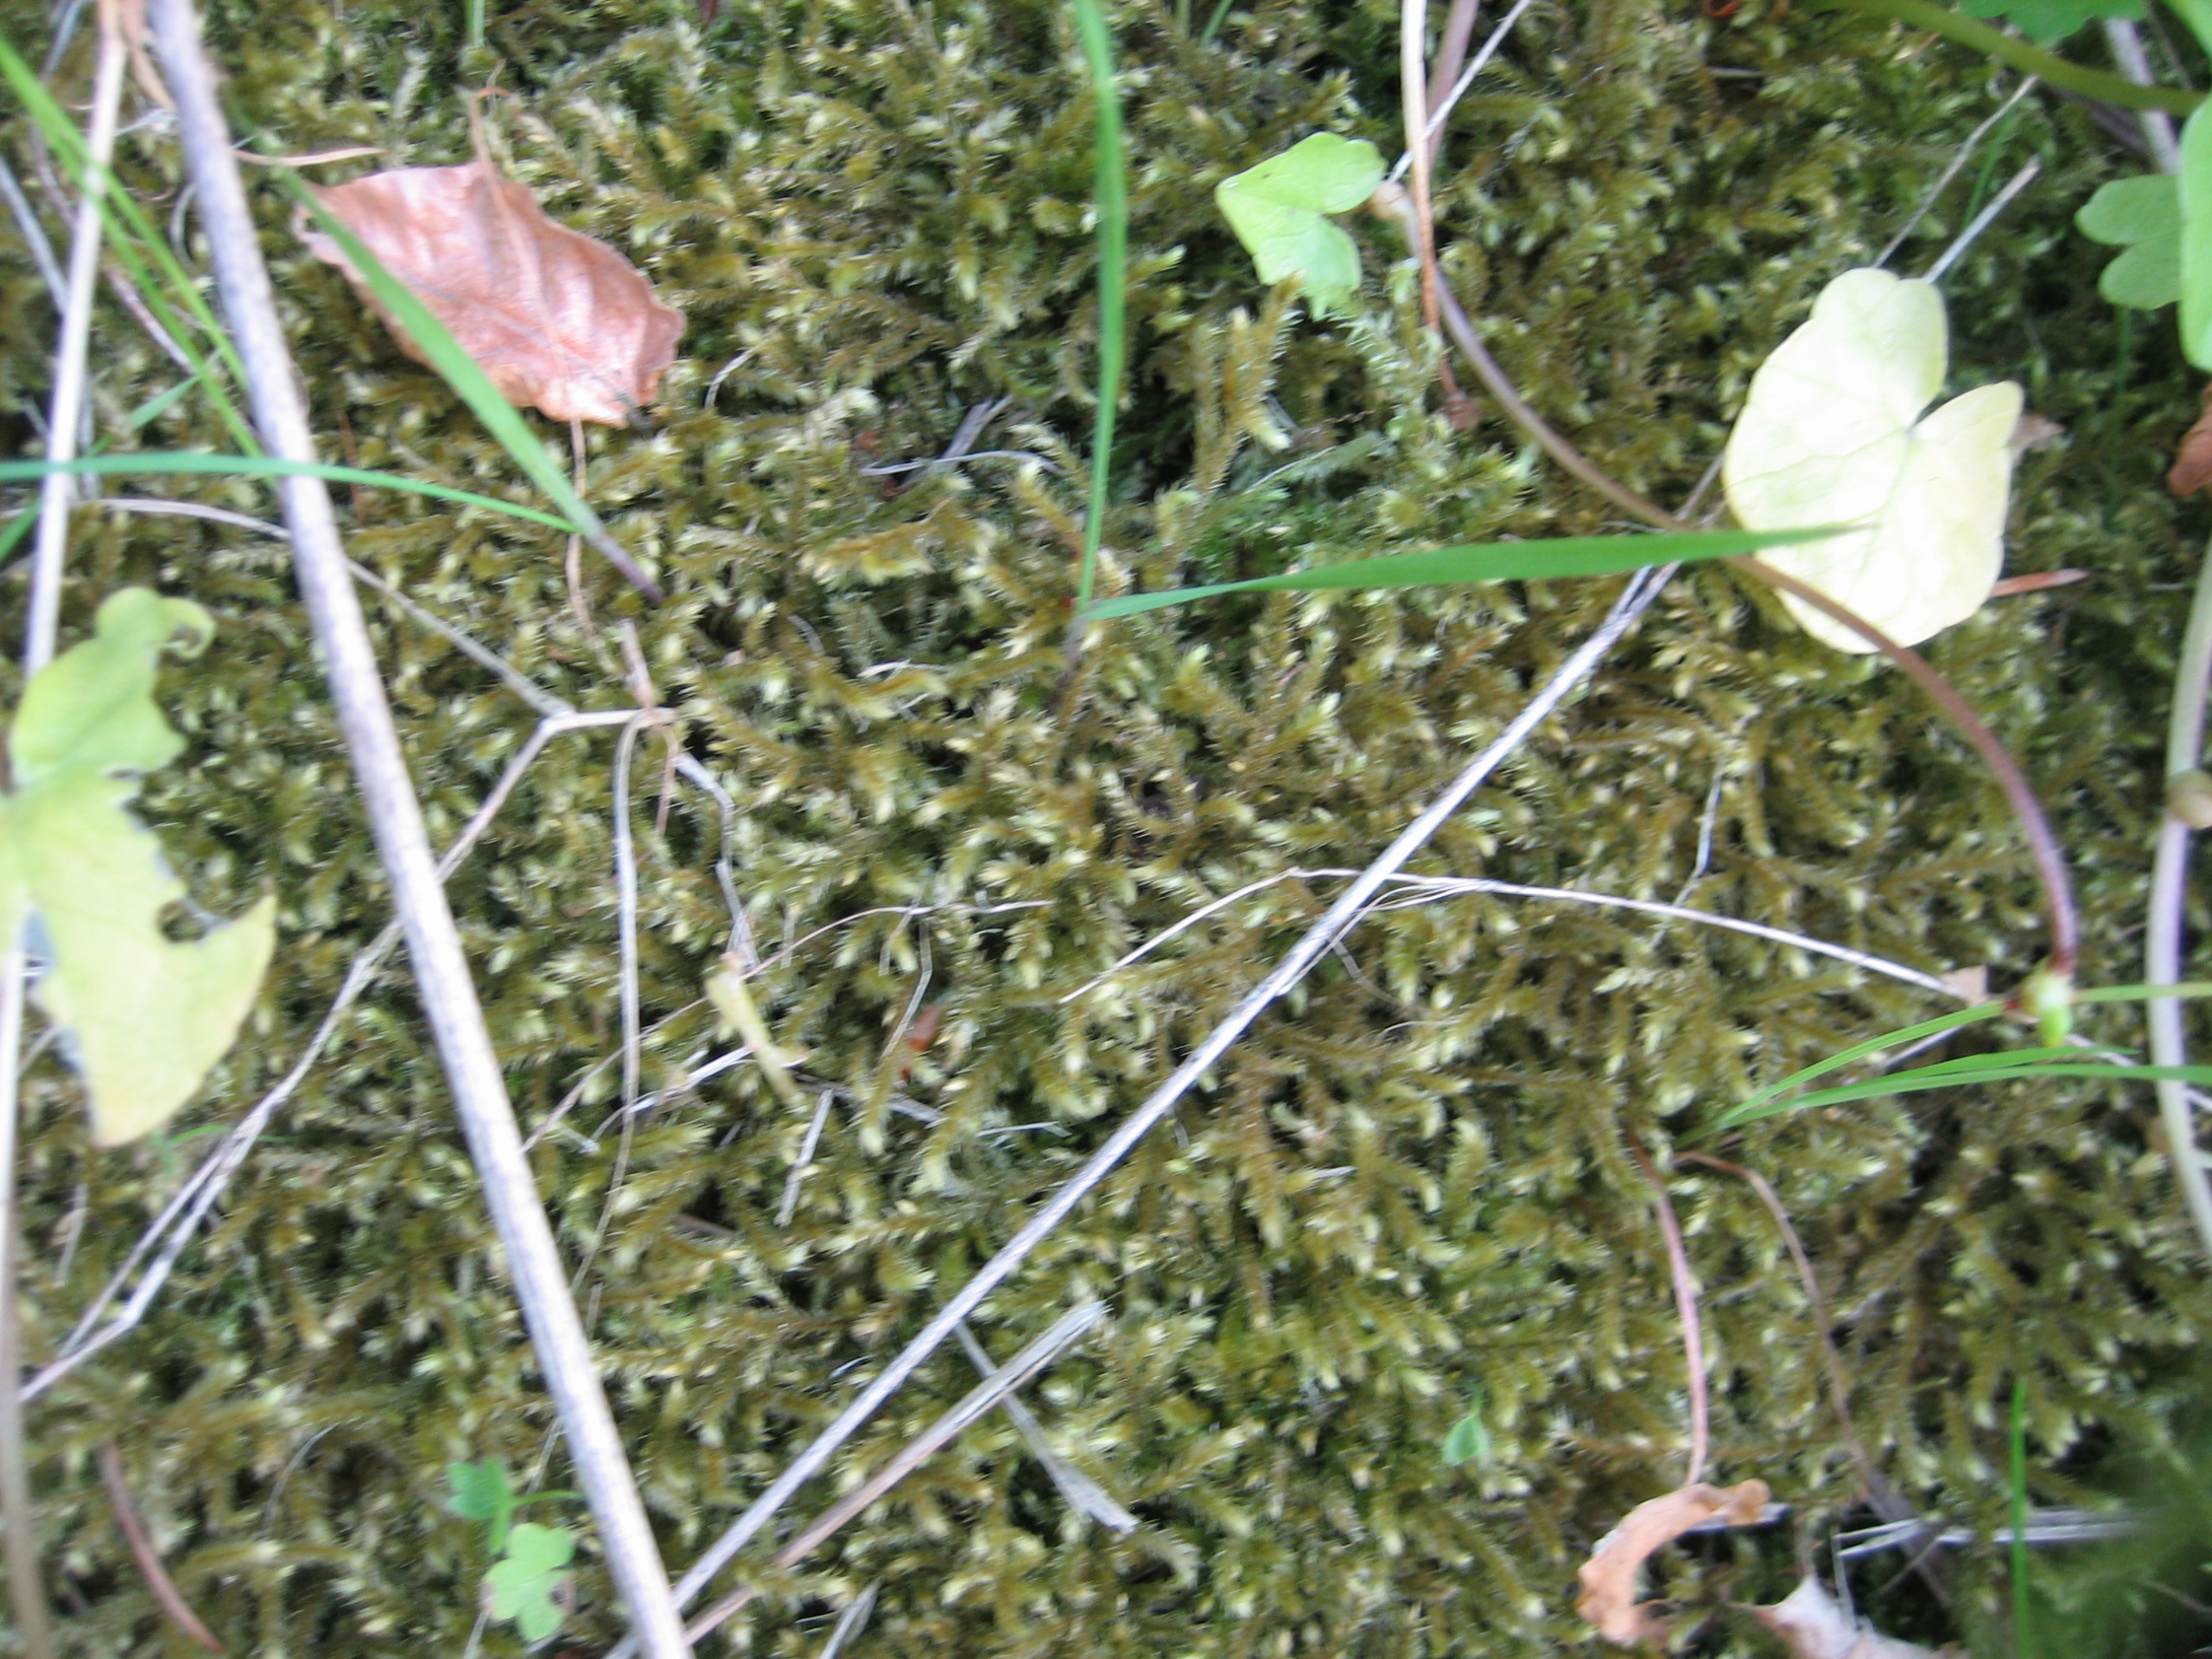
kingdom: Plantae
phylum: Bryophyta
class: Bryopsida
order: Hypnales
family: Brachytheciaceae
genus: Eurhynchium
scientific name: Eurhynchium striatum
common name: Stribet næbmos
